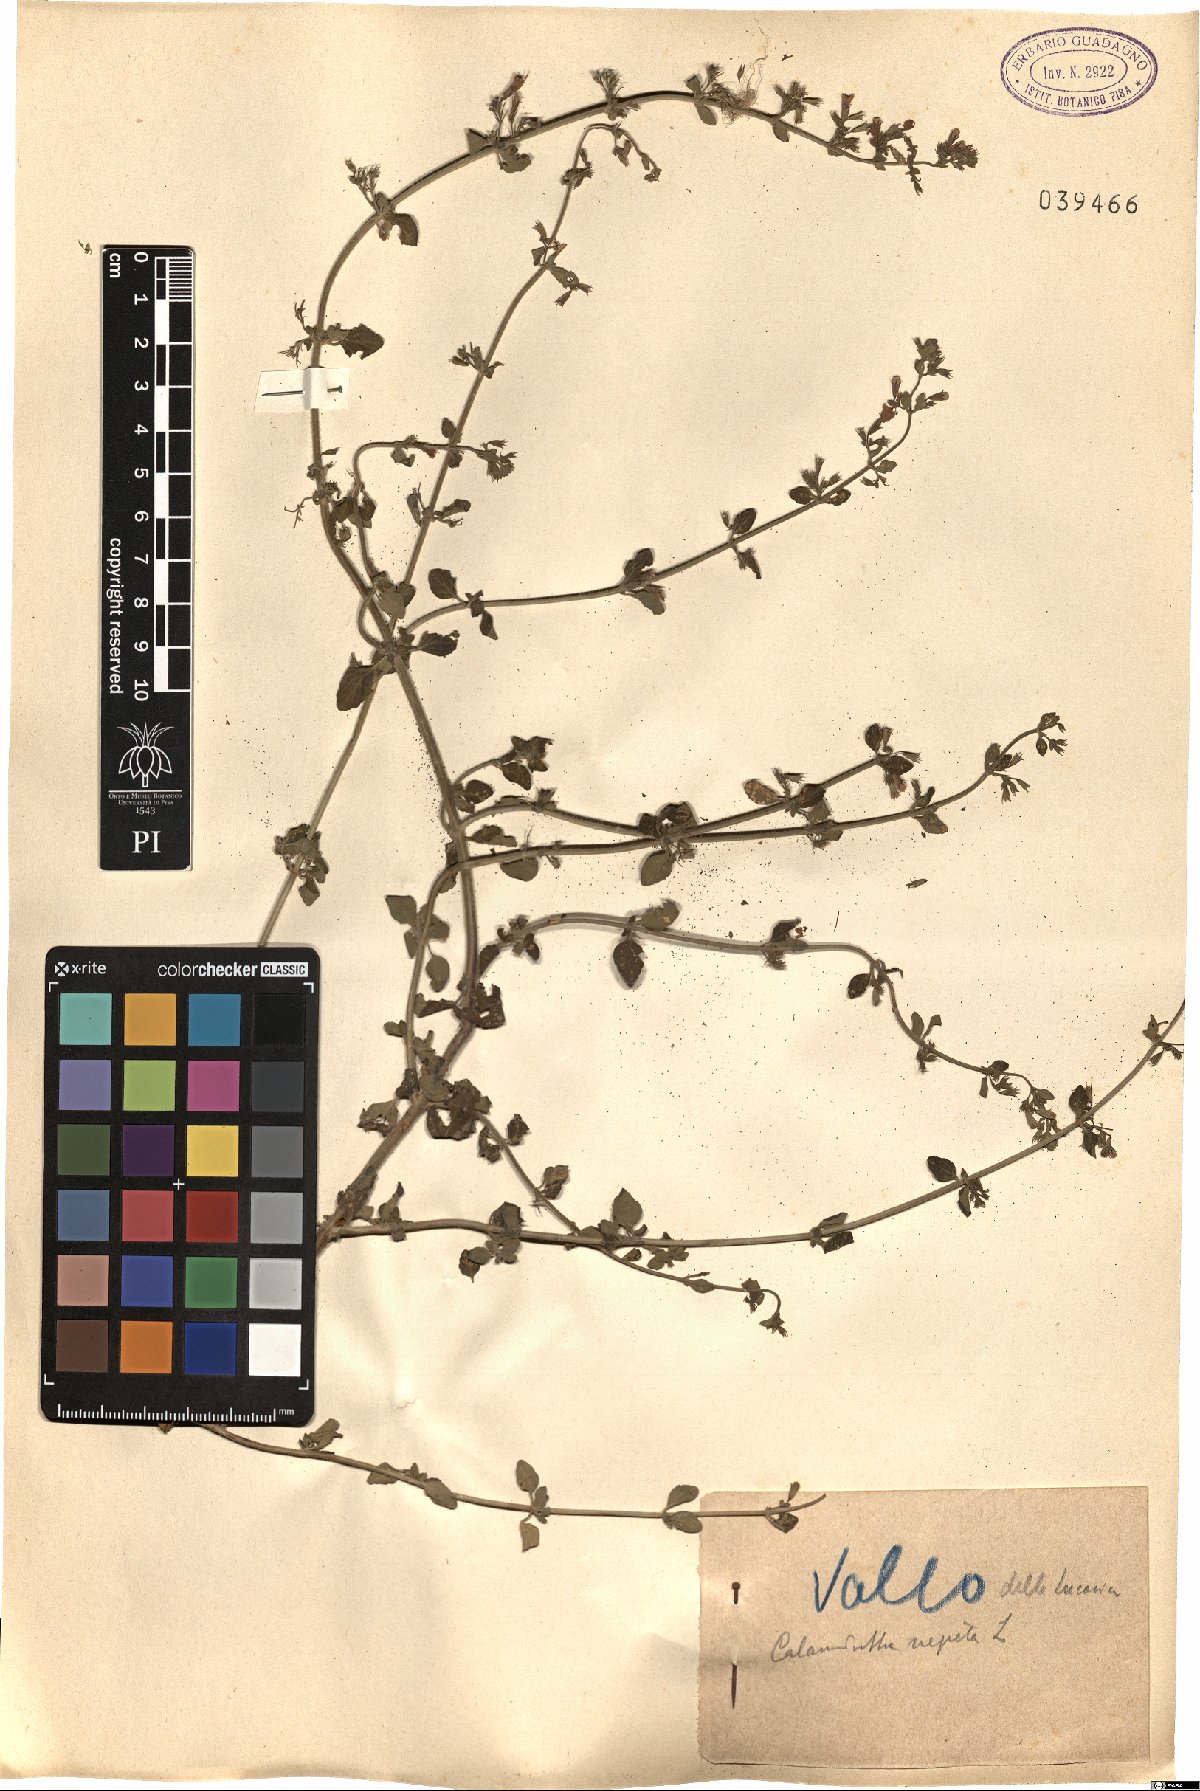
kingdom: Plantae
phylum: Tracheophyta
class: Magnoliopsida
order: Lamiales
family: Lamiaceae
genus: Clinopodium
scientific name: Clinopodium nepeta
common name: Lesser calamint
